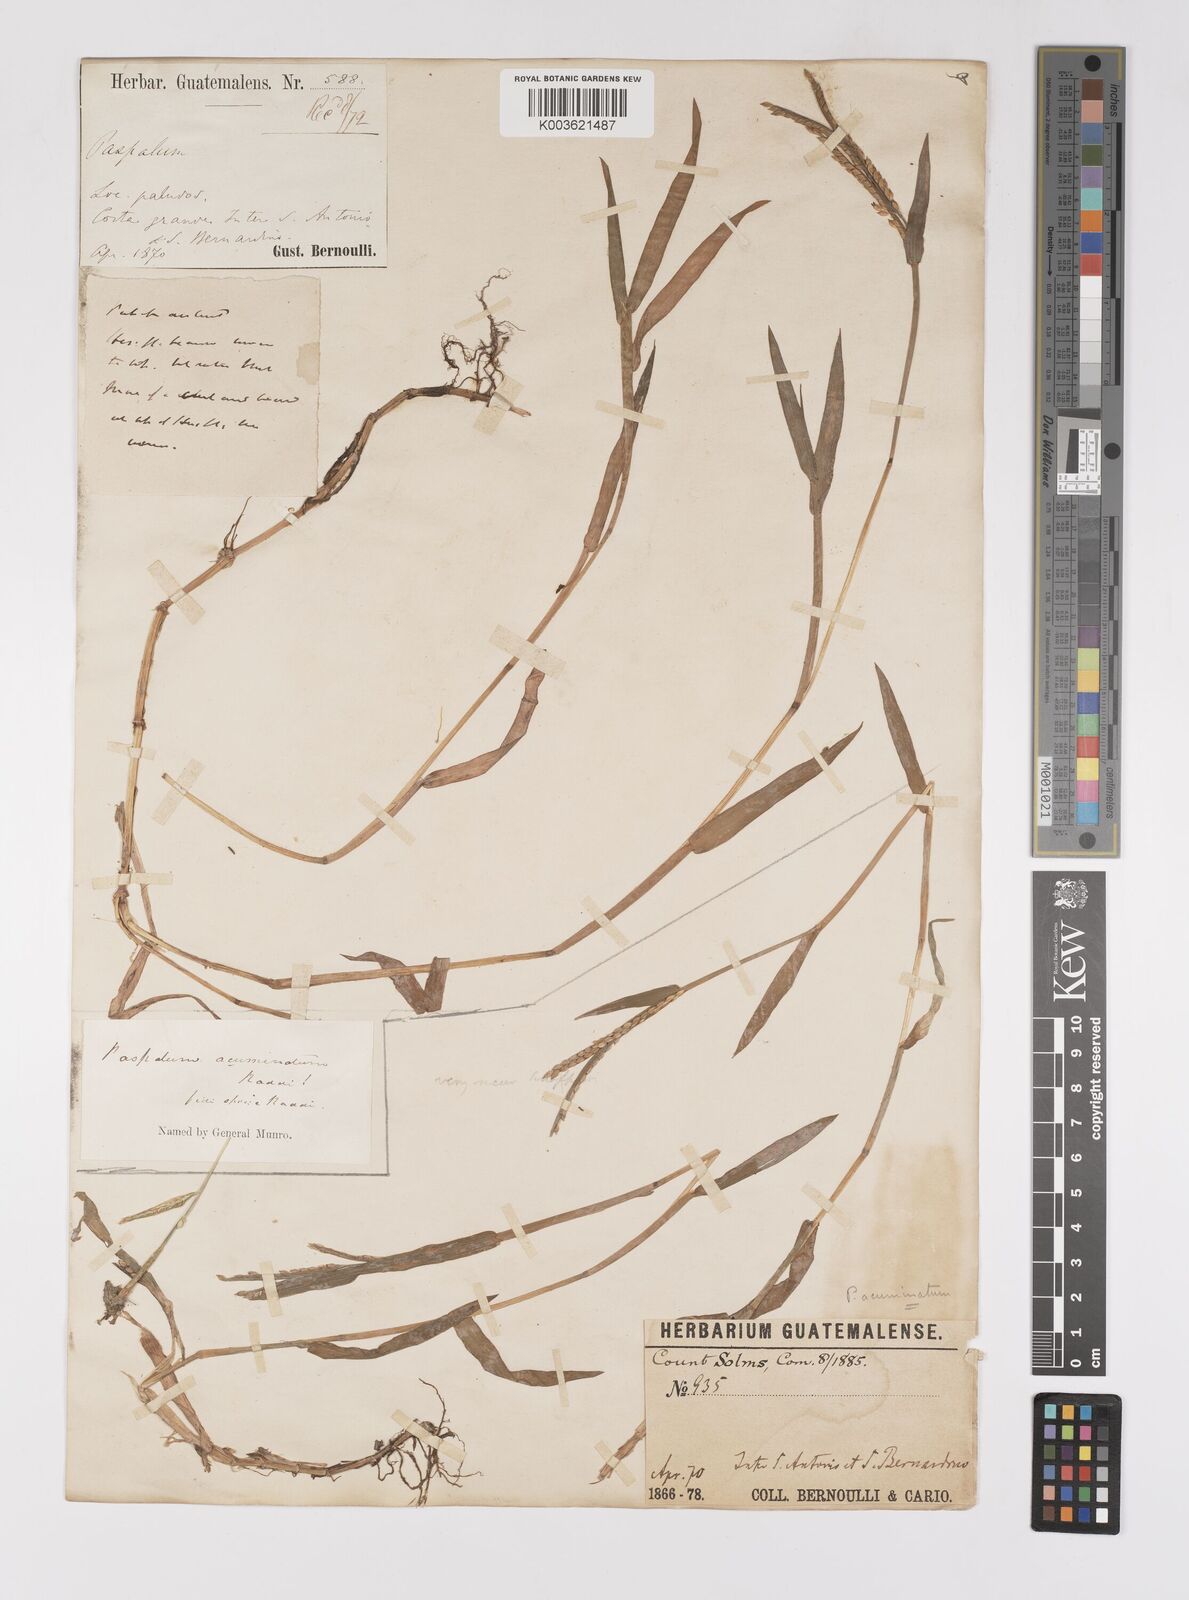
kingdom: Plantae
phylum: Tracheophyta
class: Liliopsida
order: Poales
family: Poaceae
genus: Paspalum
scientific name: Paspalum acuminatum
